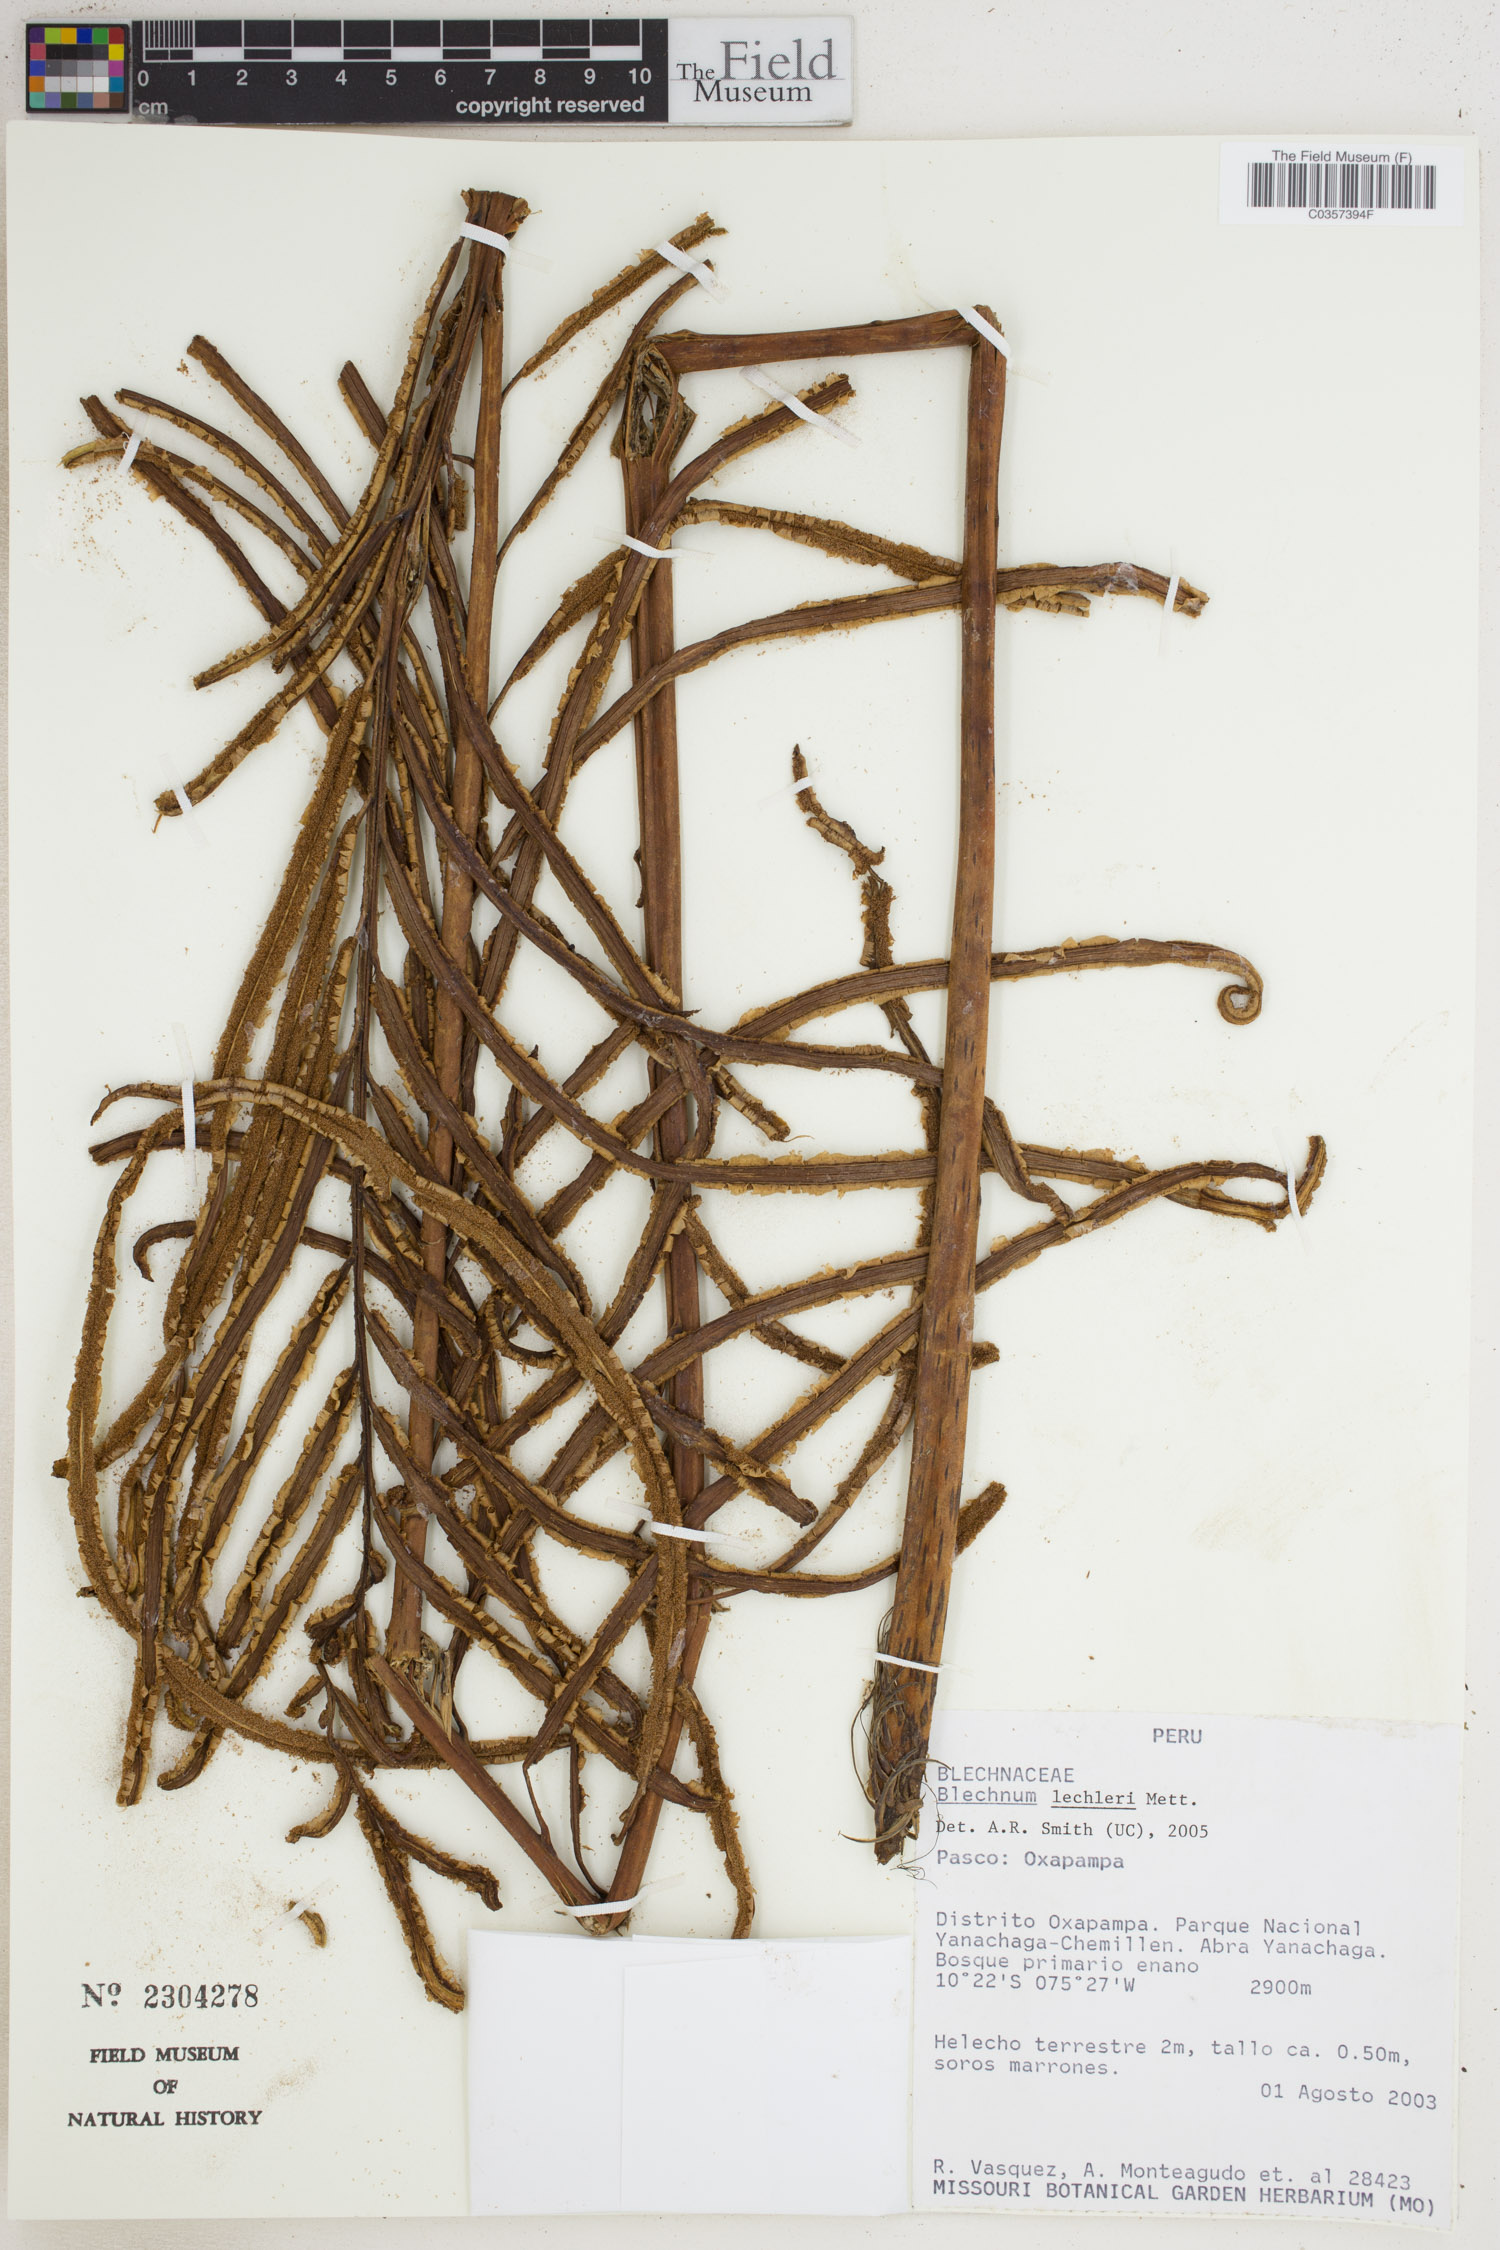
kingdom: Plantae
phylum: Tracheophyta
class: Polypodiopsida
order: Polypodiales
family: Blechnaceae
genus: Parablechnum
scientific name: Parablechnum lechleri
